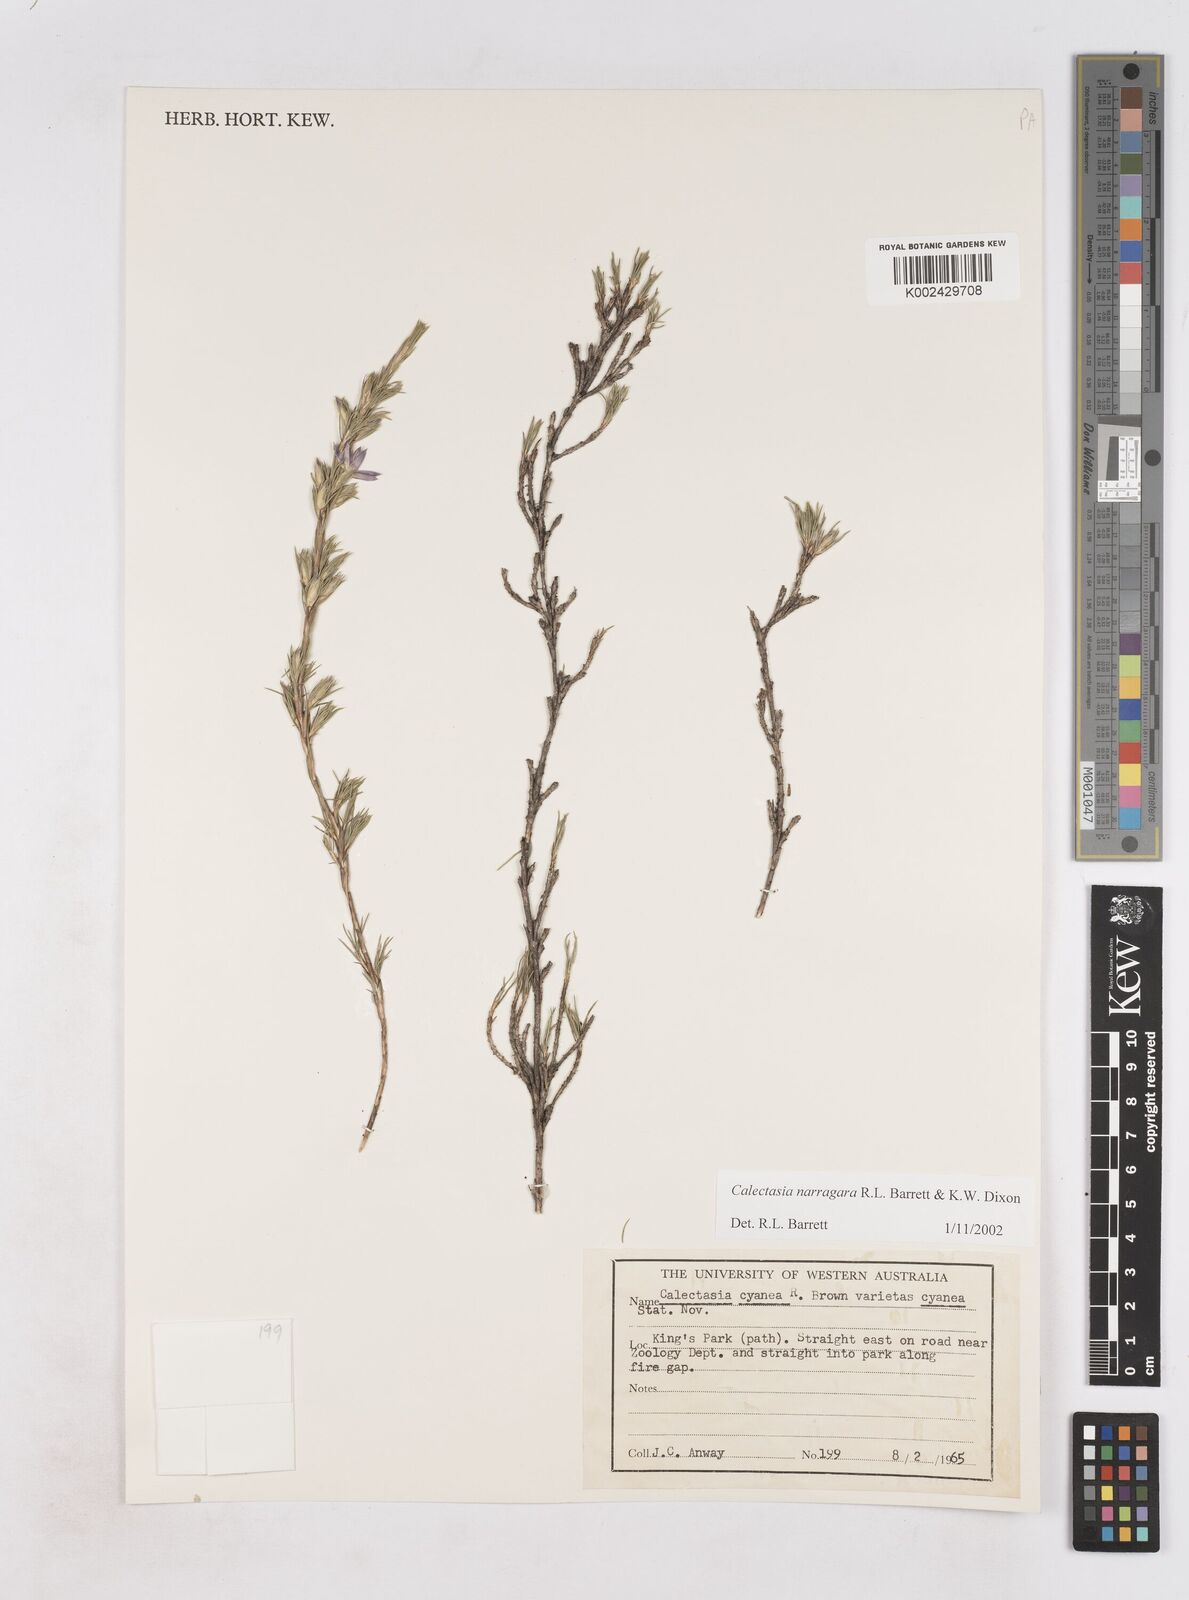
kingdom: Plantae
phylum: Tracheophyta
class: Liliopsida
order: Arecales
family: Dasypogonaceae
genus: Calectasia
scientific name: Calectasia narragara
